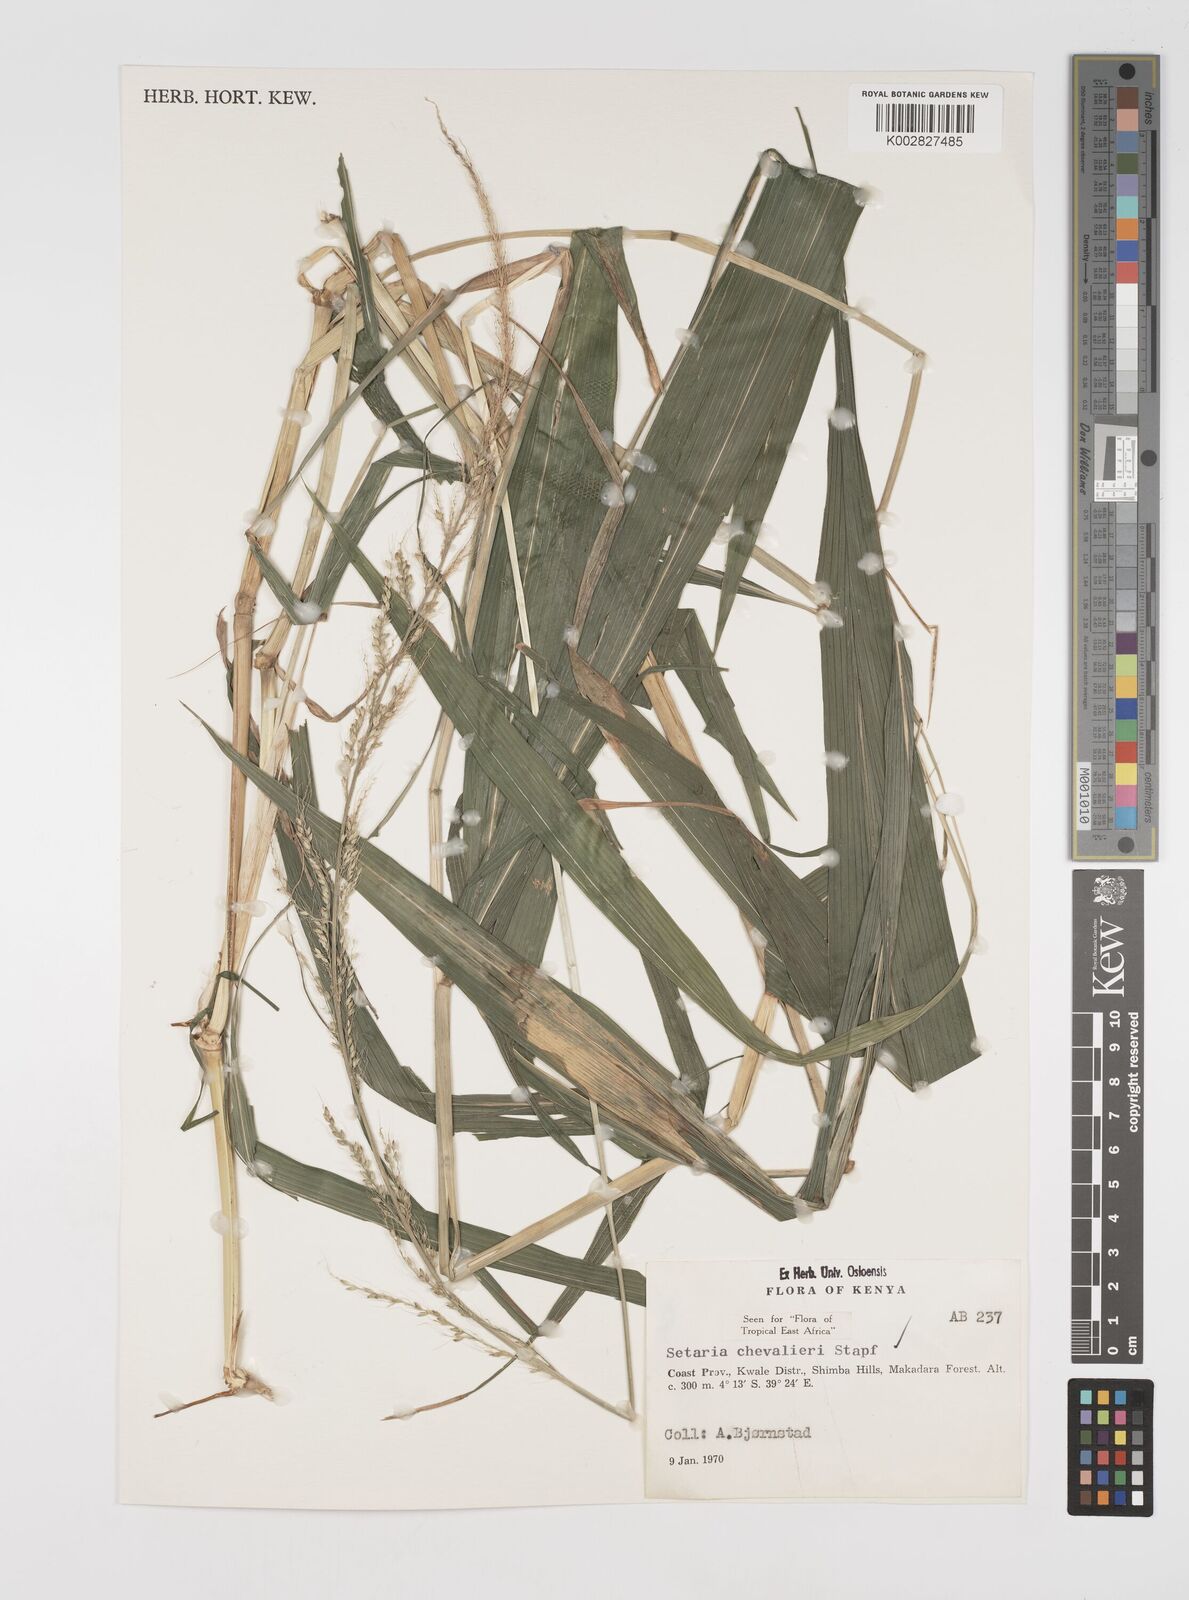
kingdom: Plantae
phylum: Tracheophyta
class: Liliopsida
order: Poales
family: Poaceae
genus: Setaria
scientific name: Setaria megaphylla
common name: Bigleaf bristlegrass
